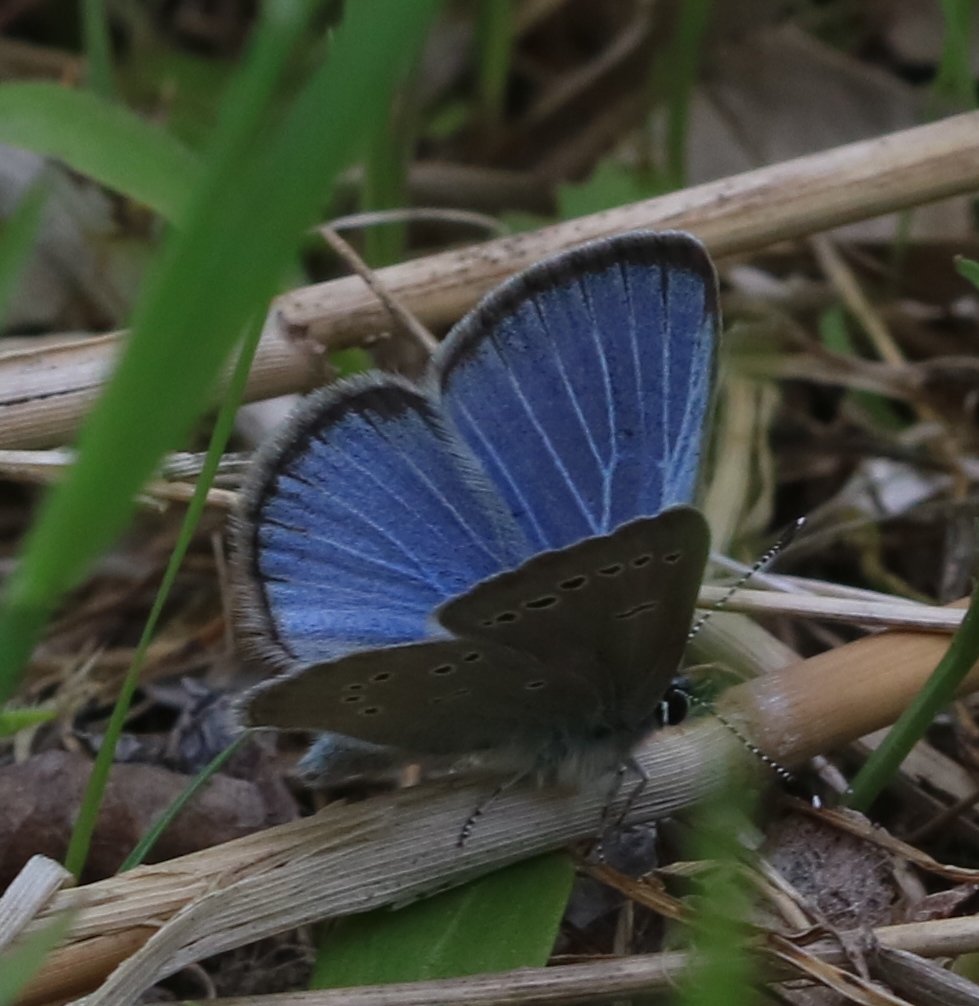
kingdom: Animalia
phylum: Arthropoda
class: Insecta
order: Lepidoptera
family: Lycaenidae
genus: Glaucopsyche
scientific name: Glaucopsyche lygdamus
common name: Silvery Blue
